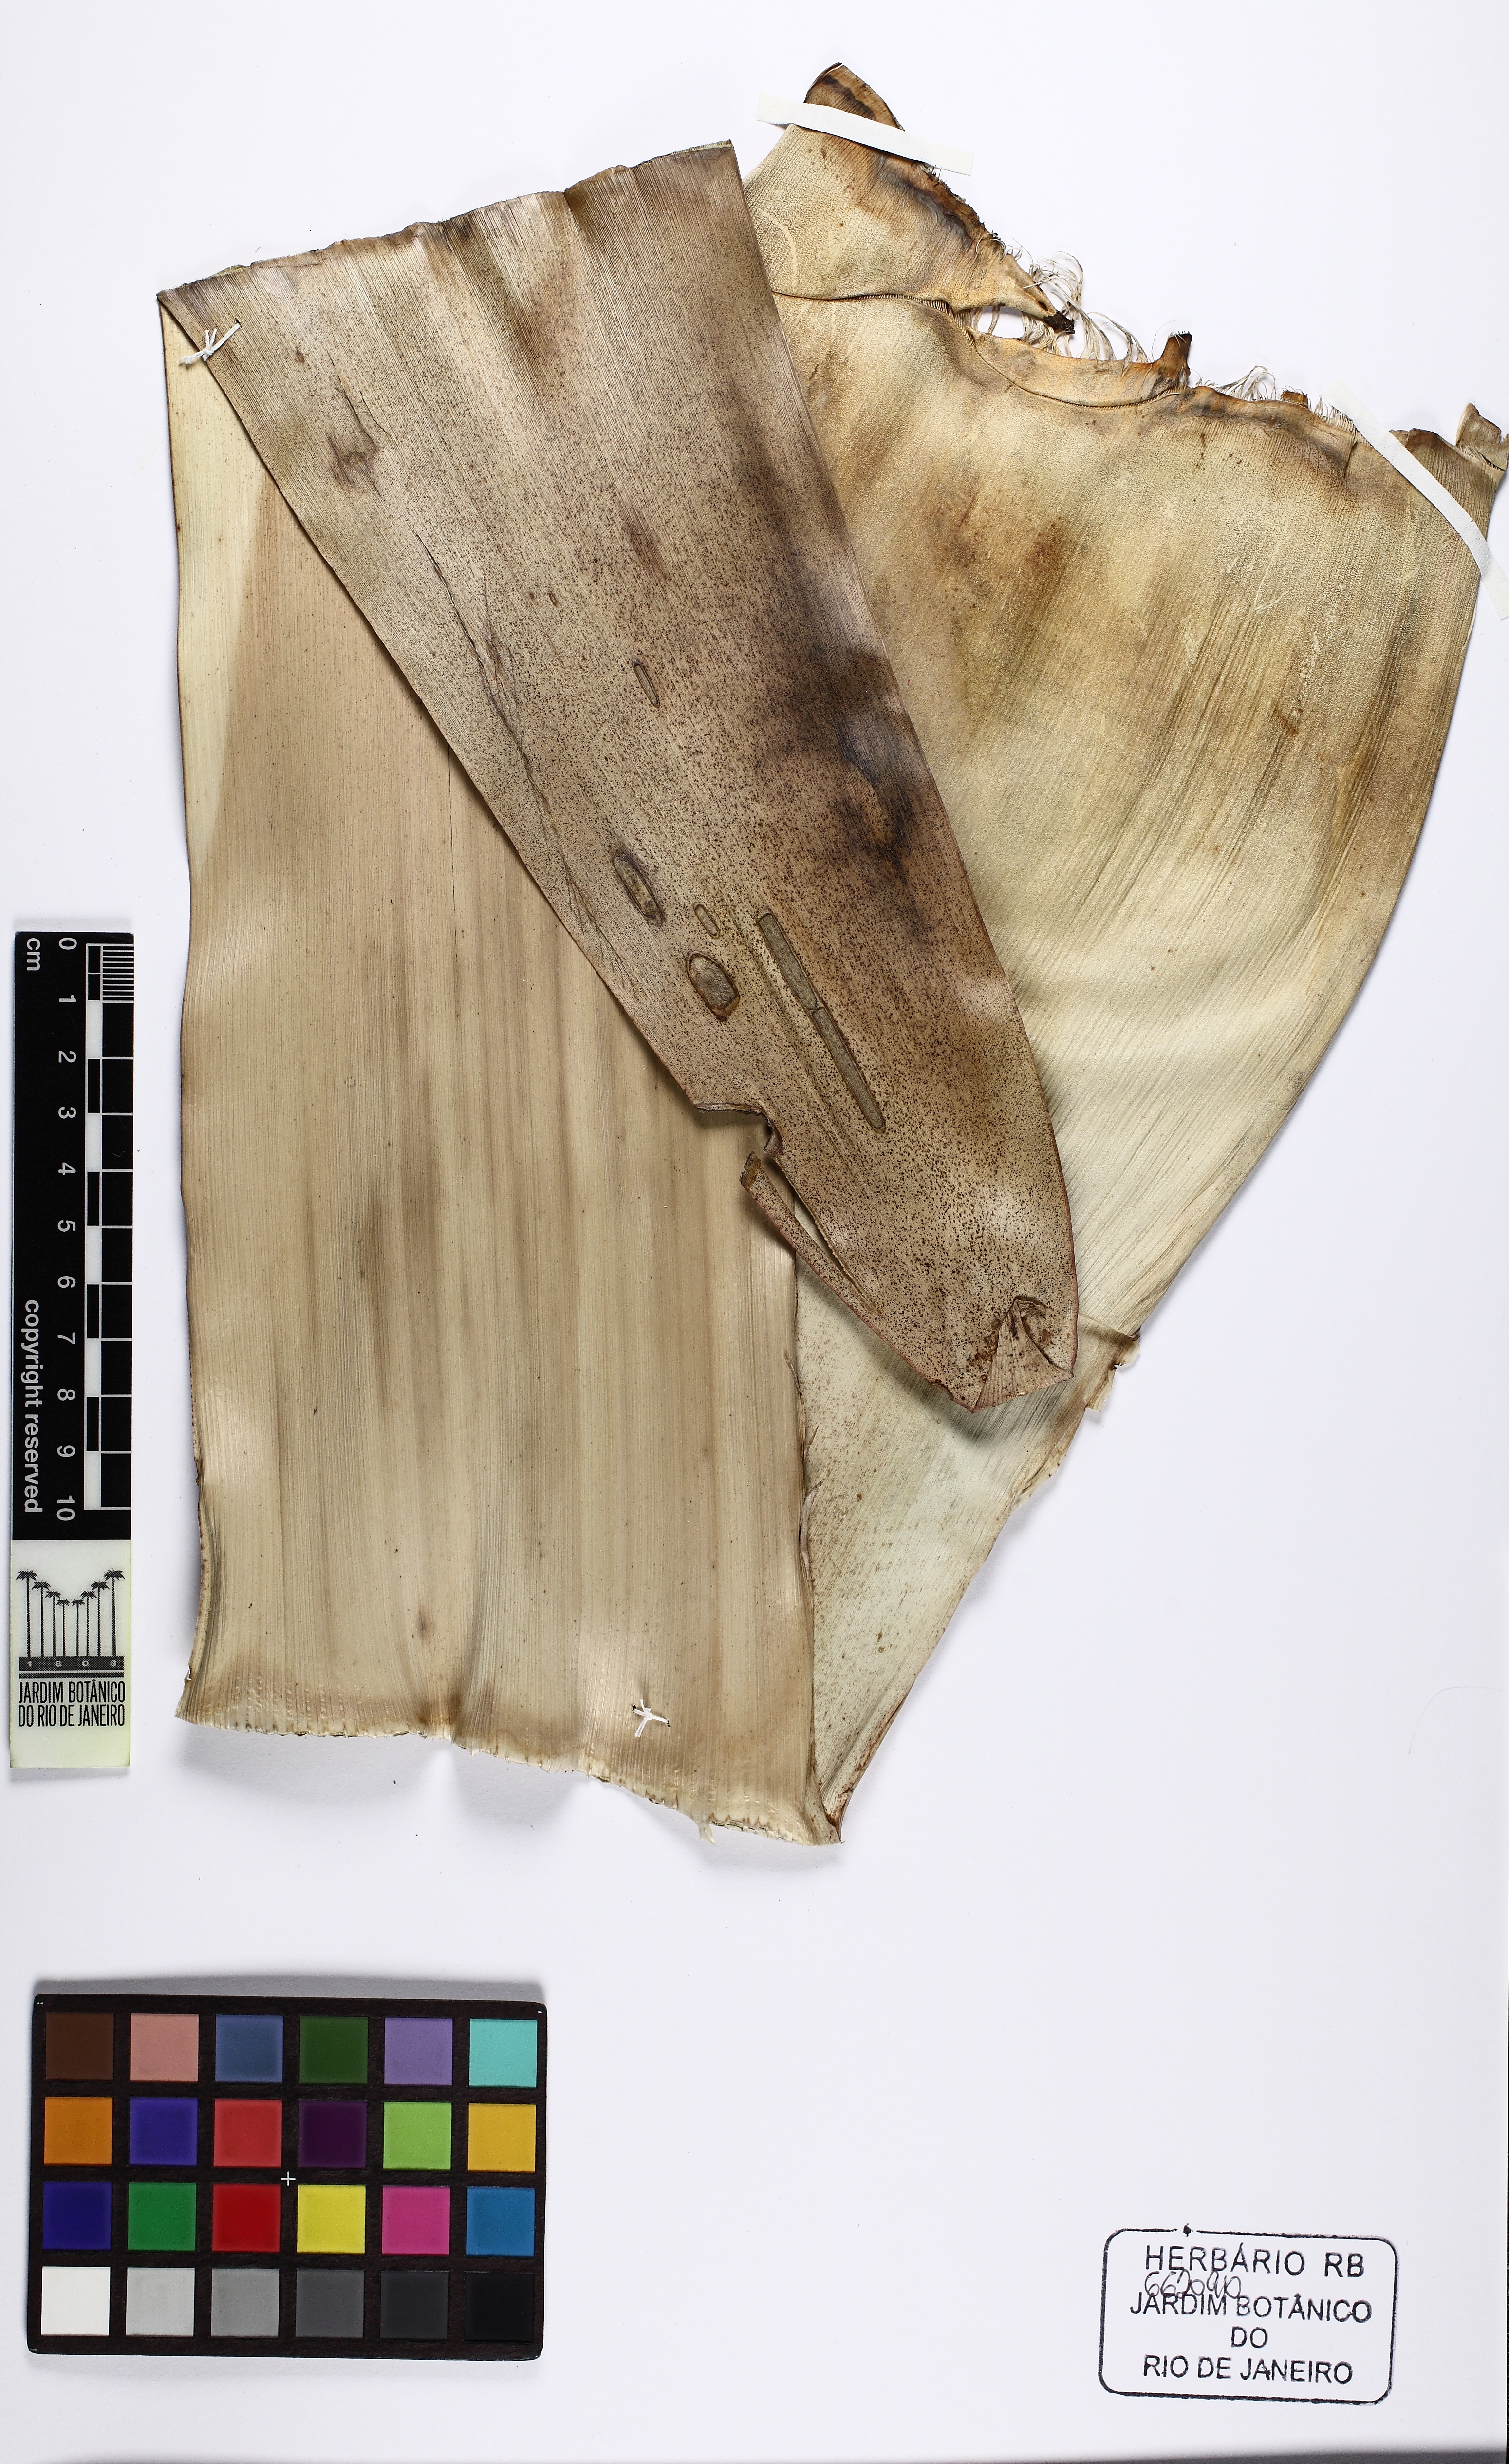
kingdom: Plantae
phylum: Tracheophyta
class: Liliopsida
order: Poales
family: Bromeliaceae
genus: Alcantarea
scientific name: Alcantarea nahoumii
